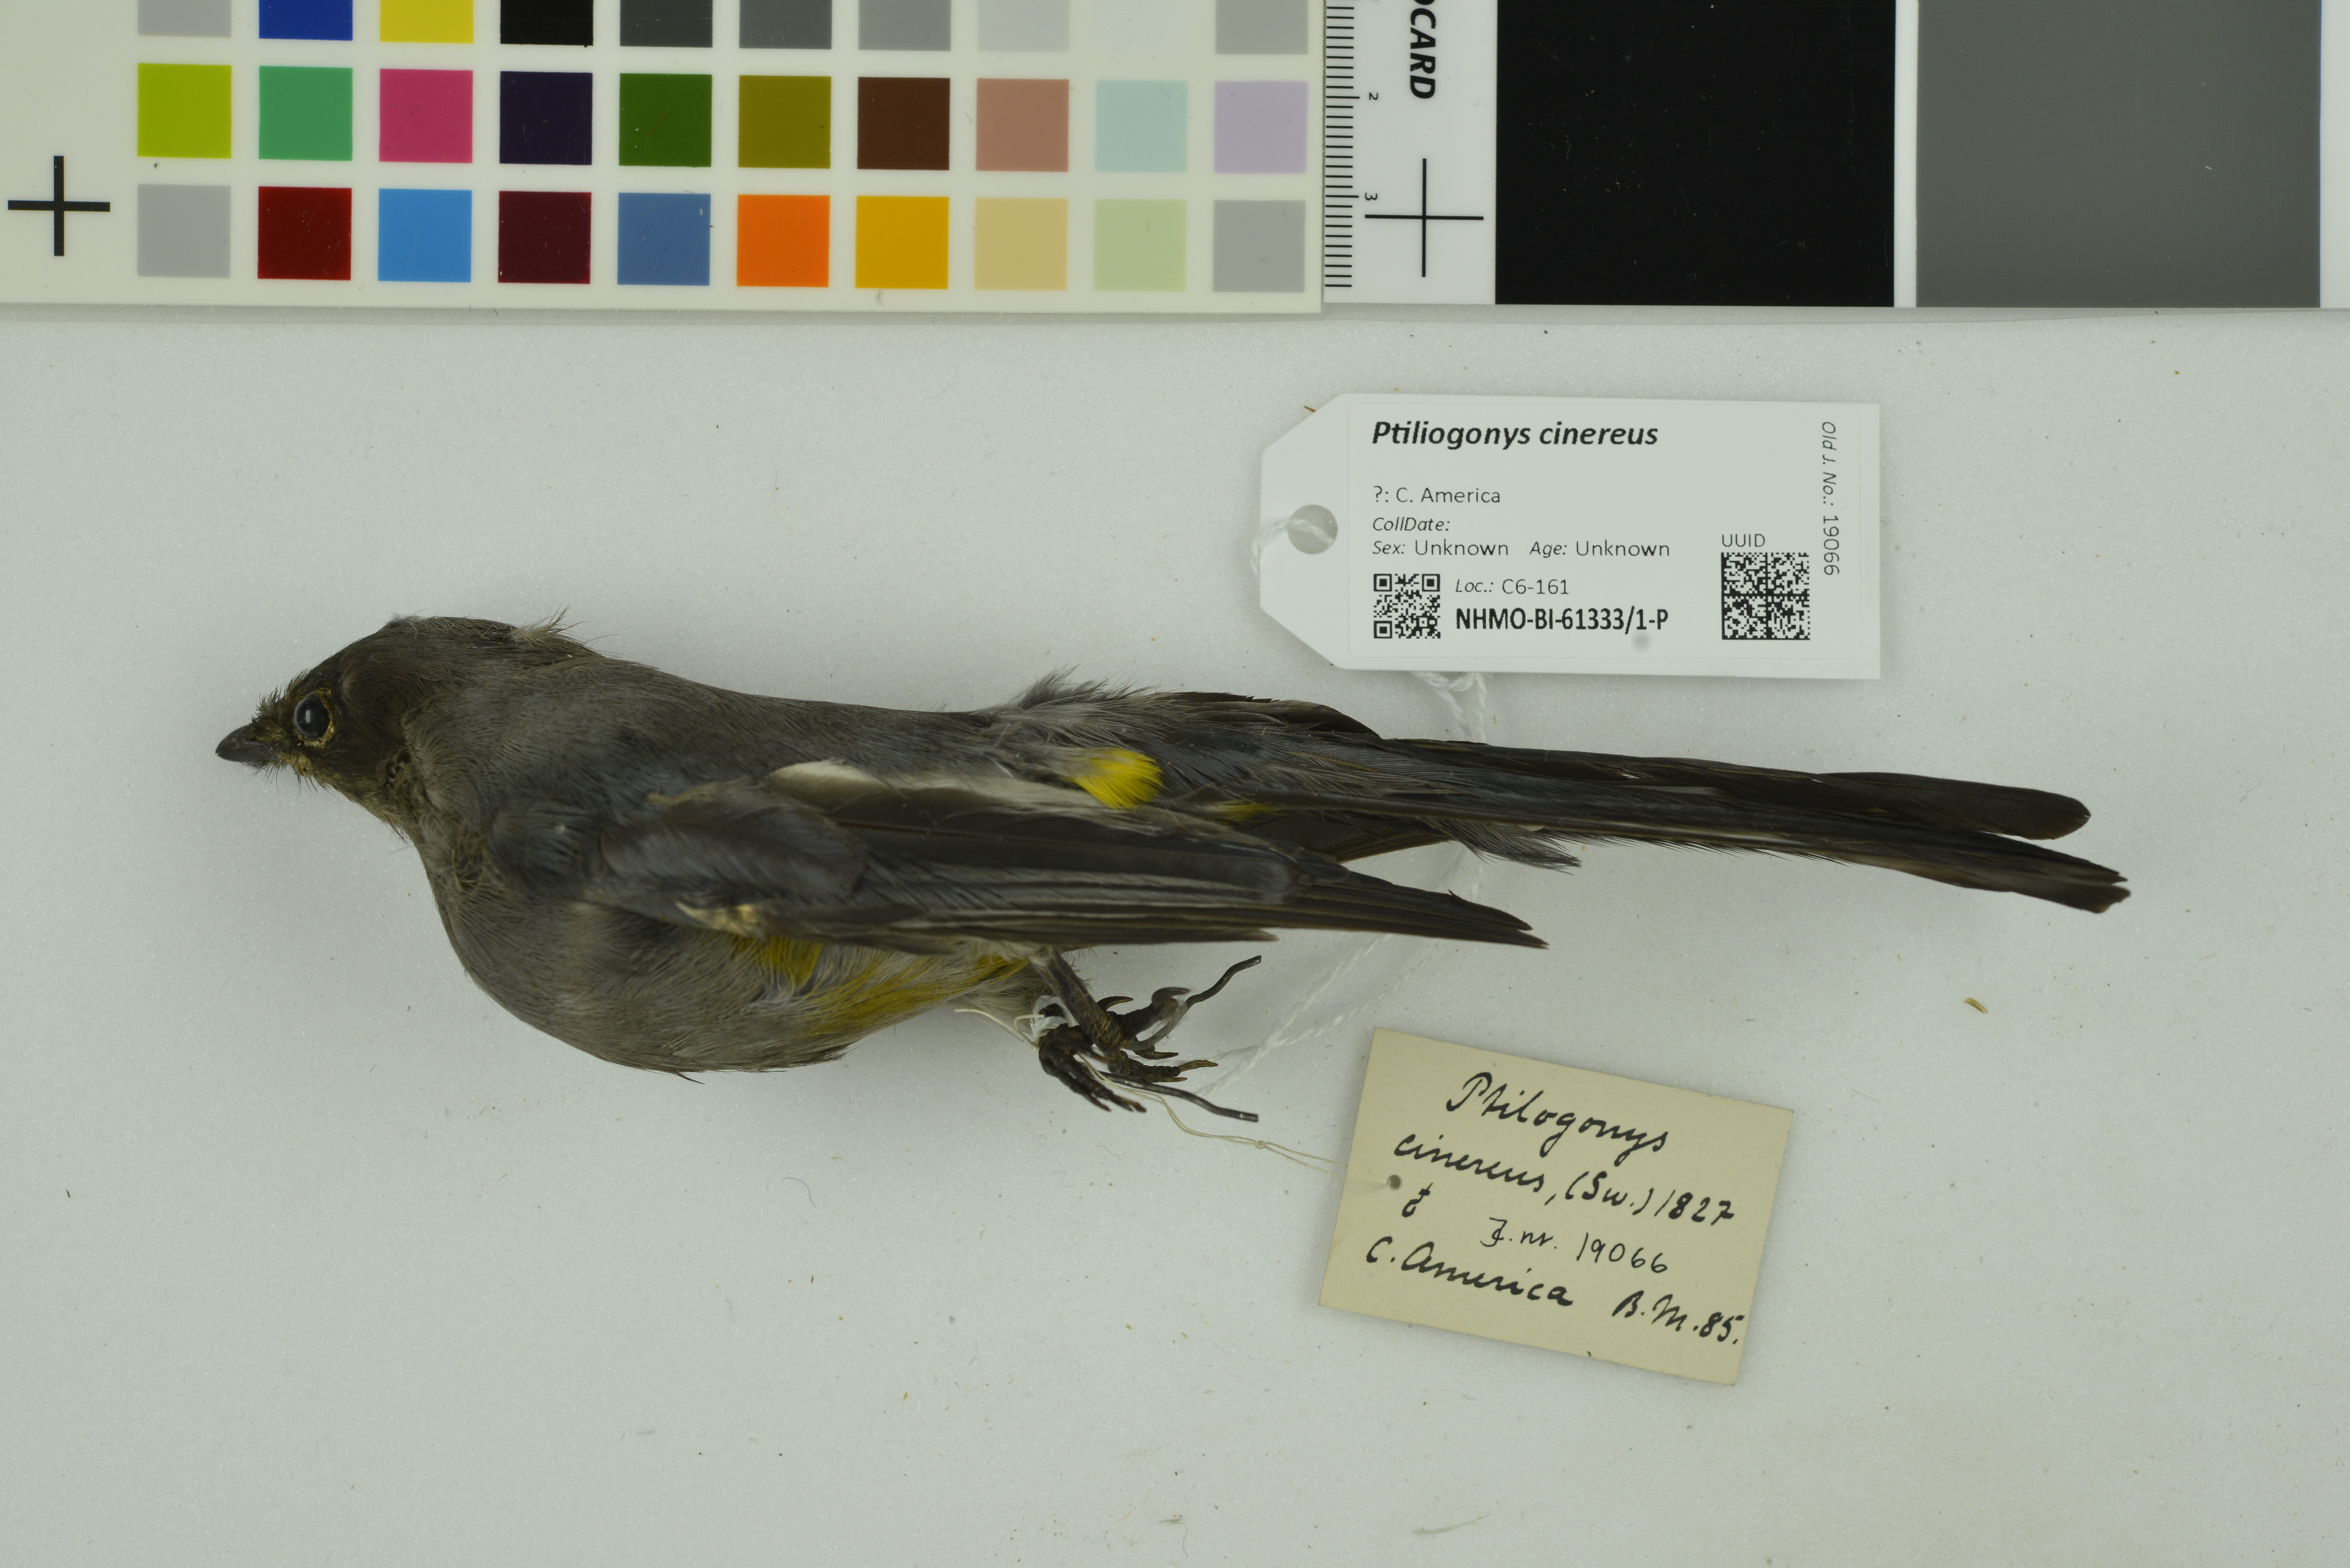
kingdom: Animalia
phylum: Chordata
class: Aves
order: Passeriformes
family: Ptilogonatidae
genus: Ptilogonys
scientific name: Ptilogonys cinereus
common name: Gray silky-flycatcher
